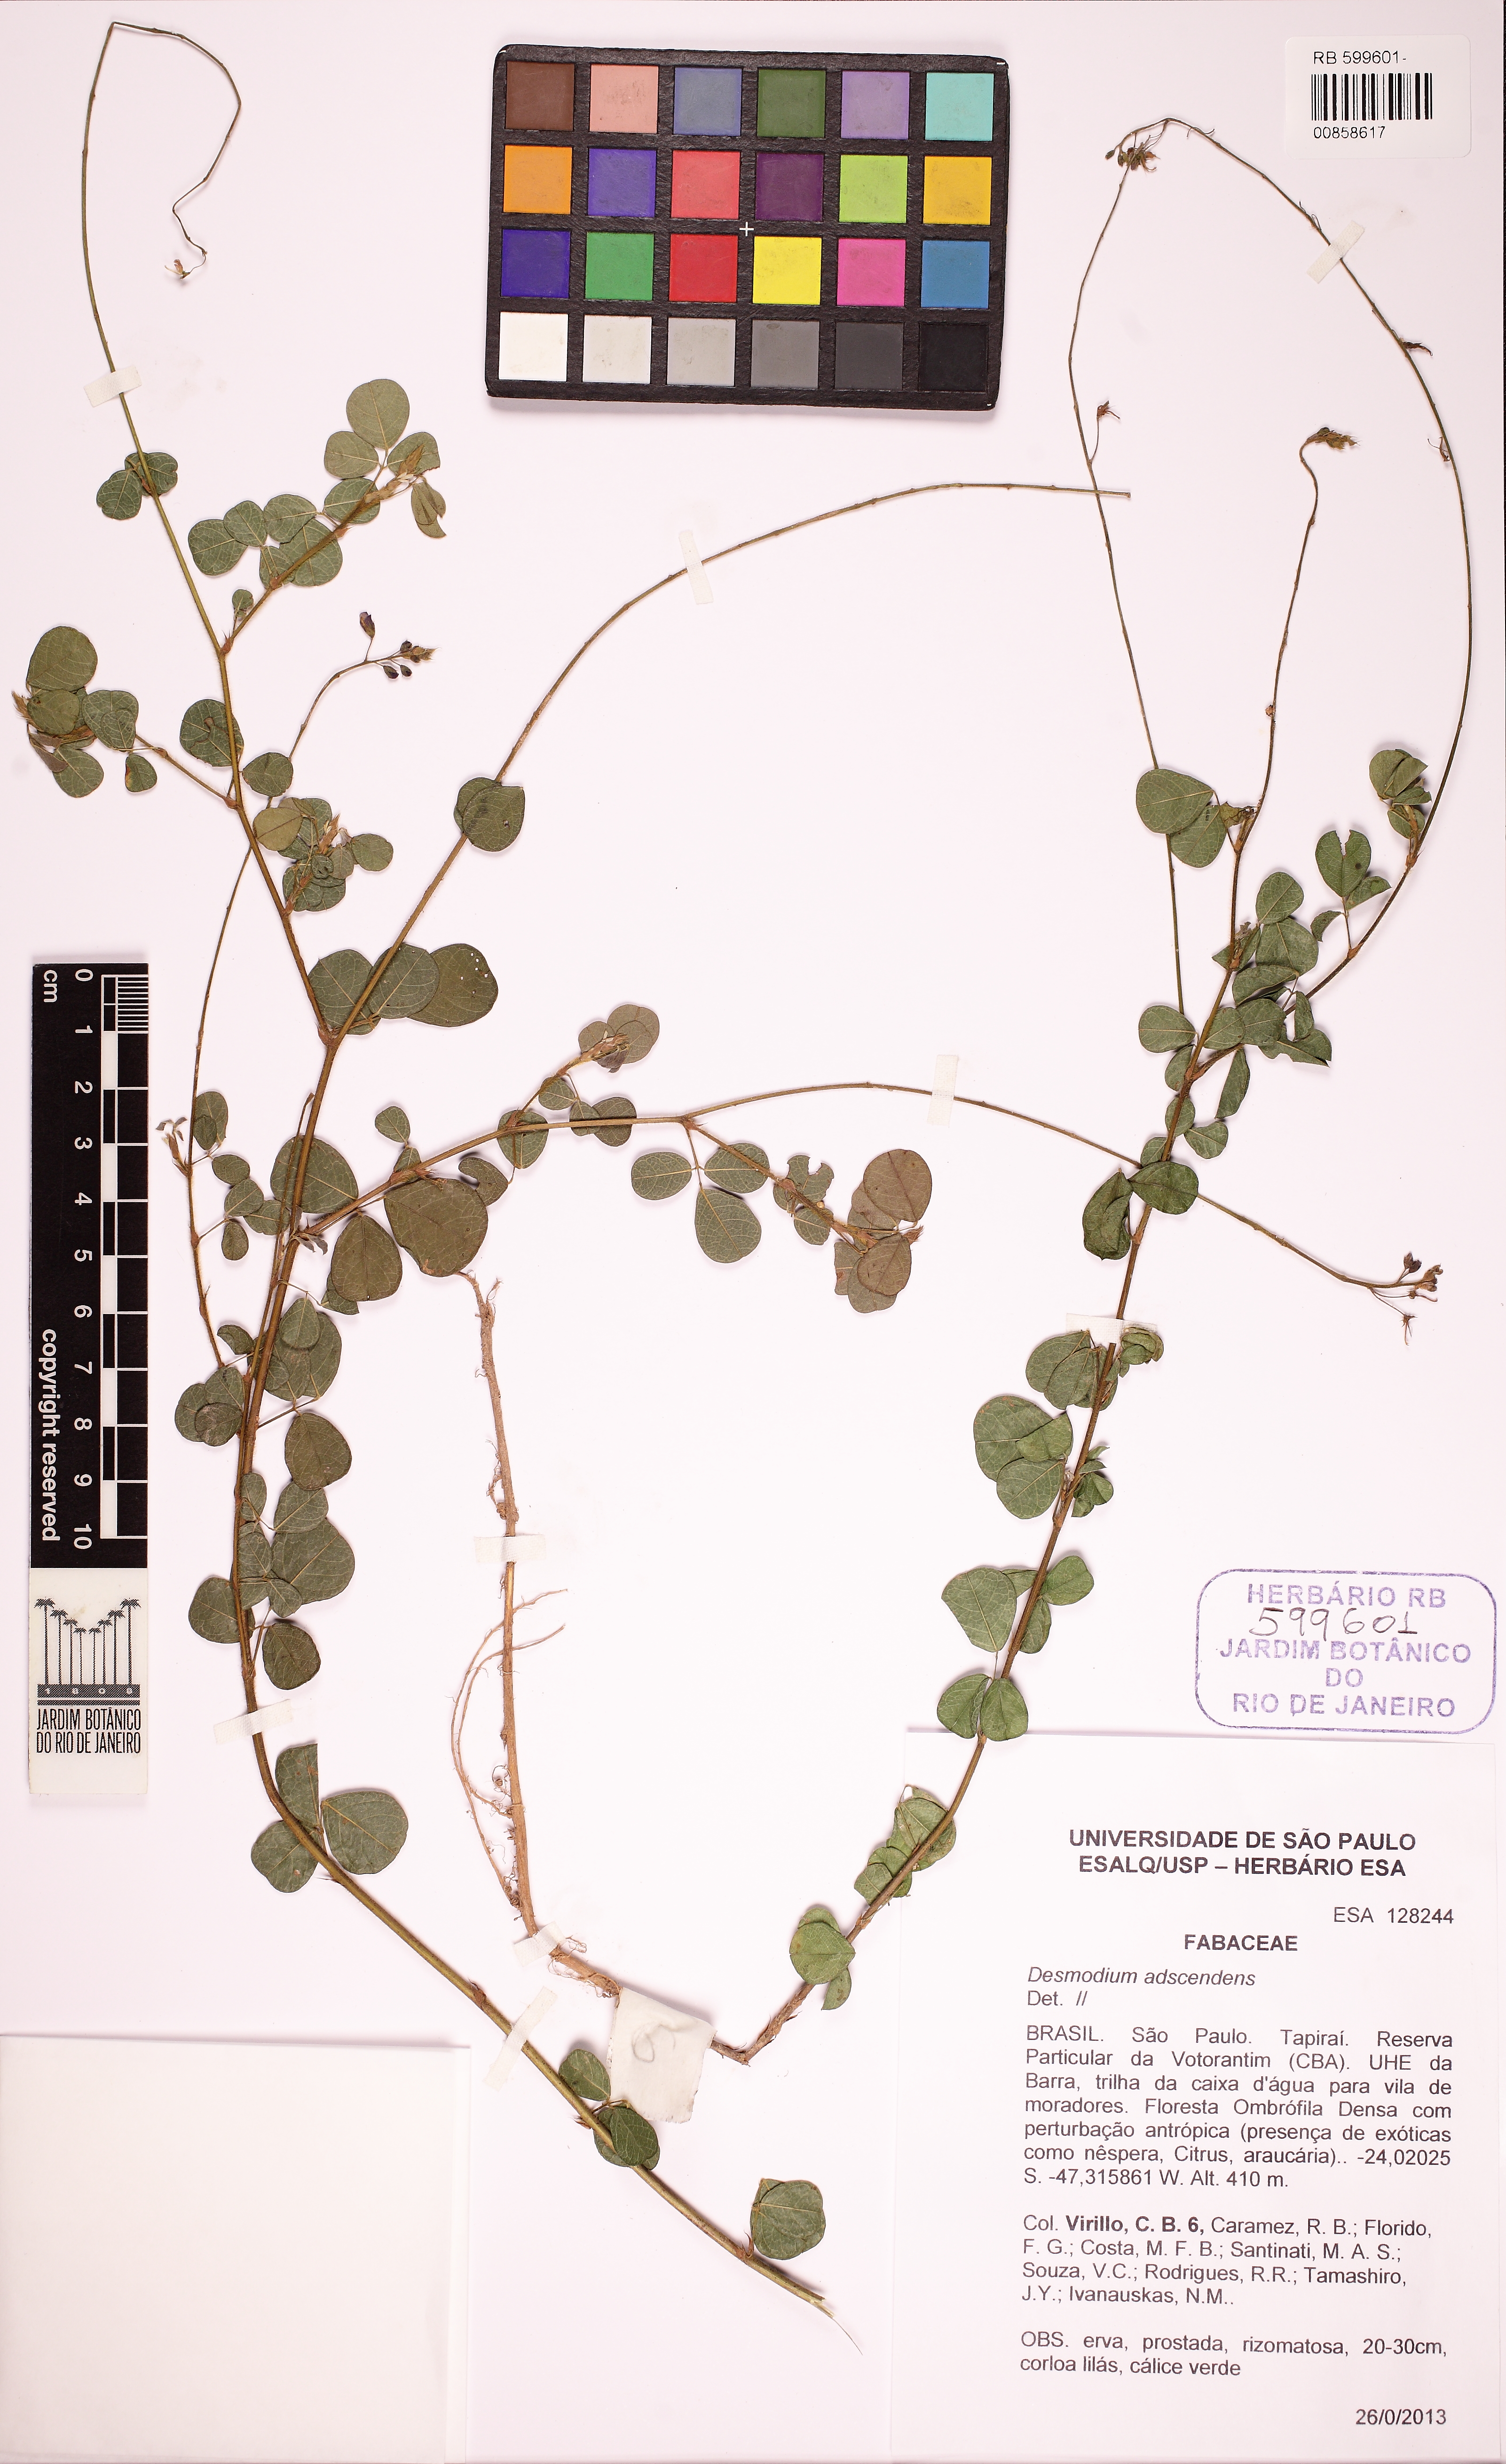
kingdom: Plantae
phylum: Tracheophyta
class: Magnoliopsida
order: Fabales
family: Fabaceae
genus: Grona
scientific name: Grona adscendens
